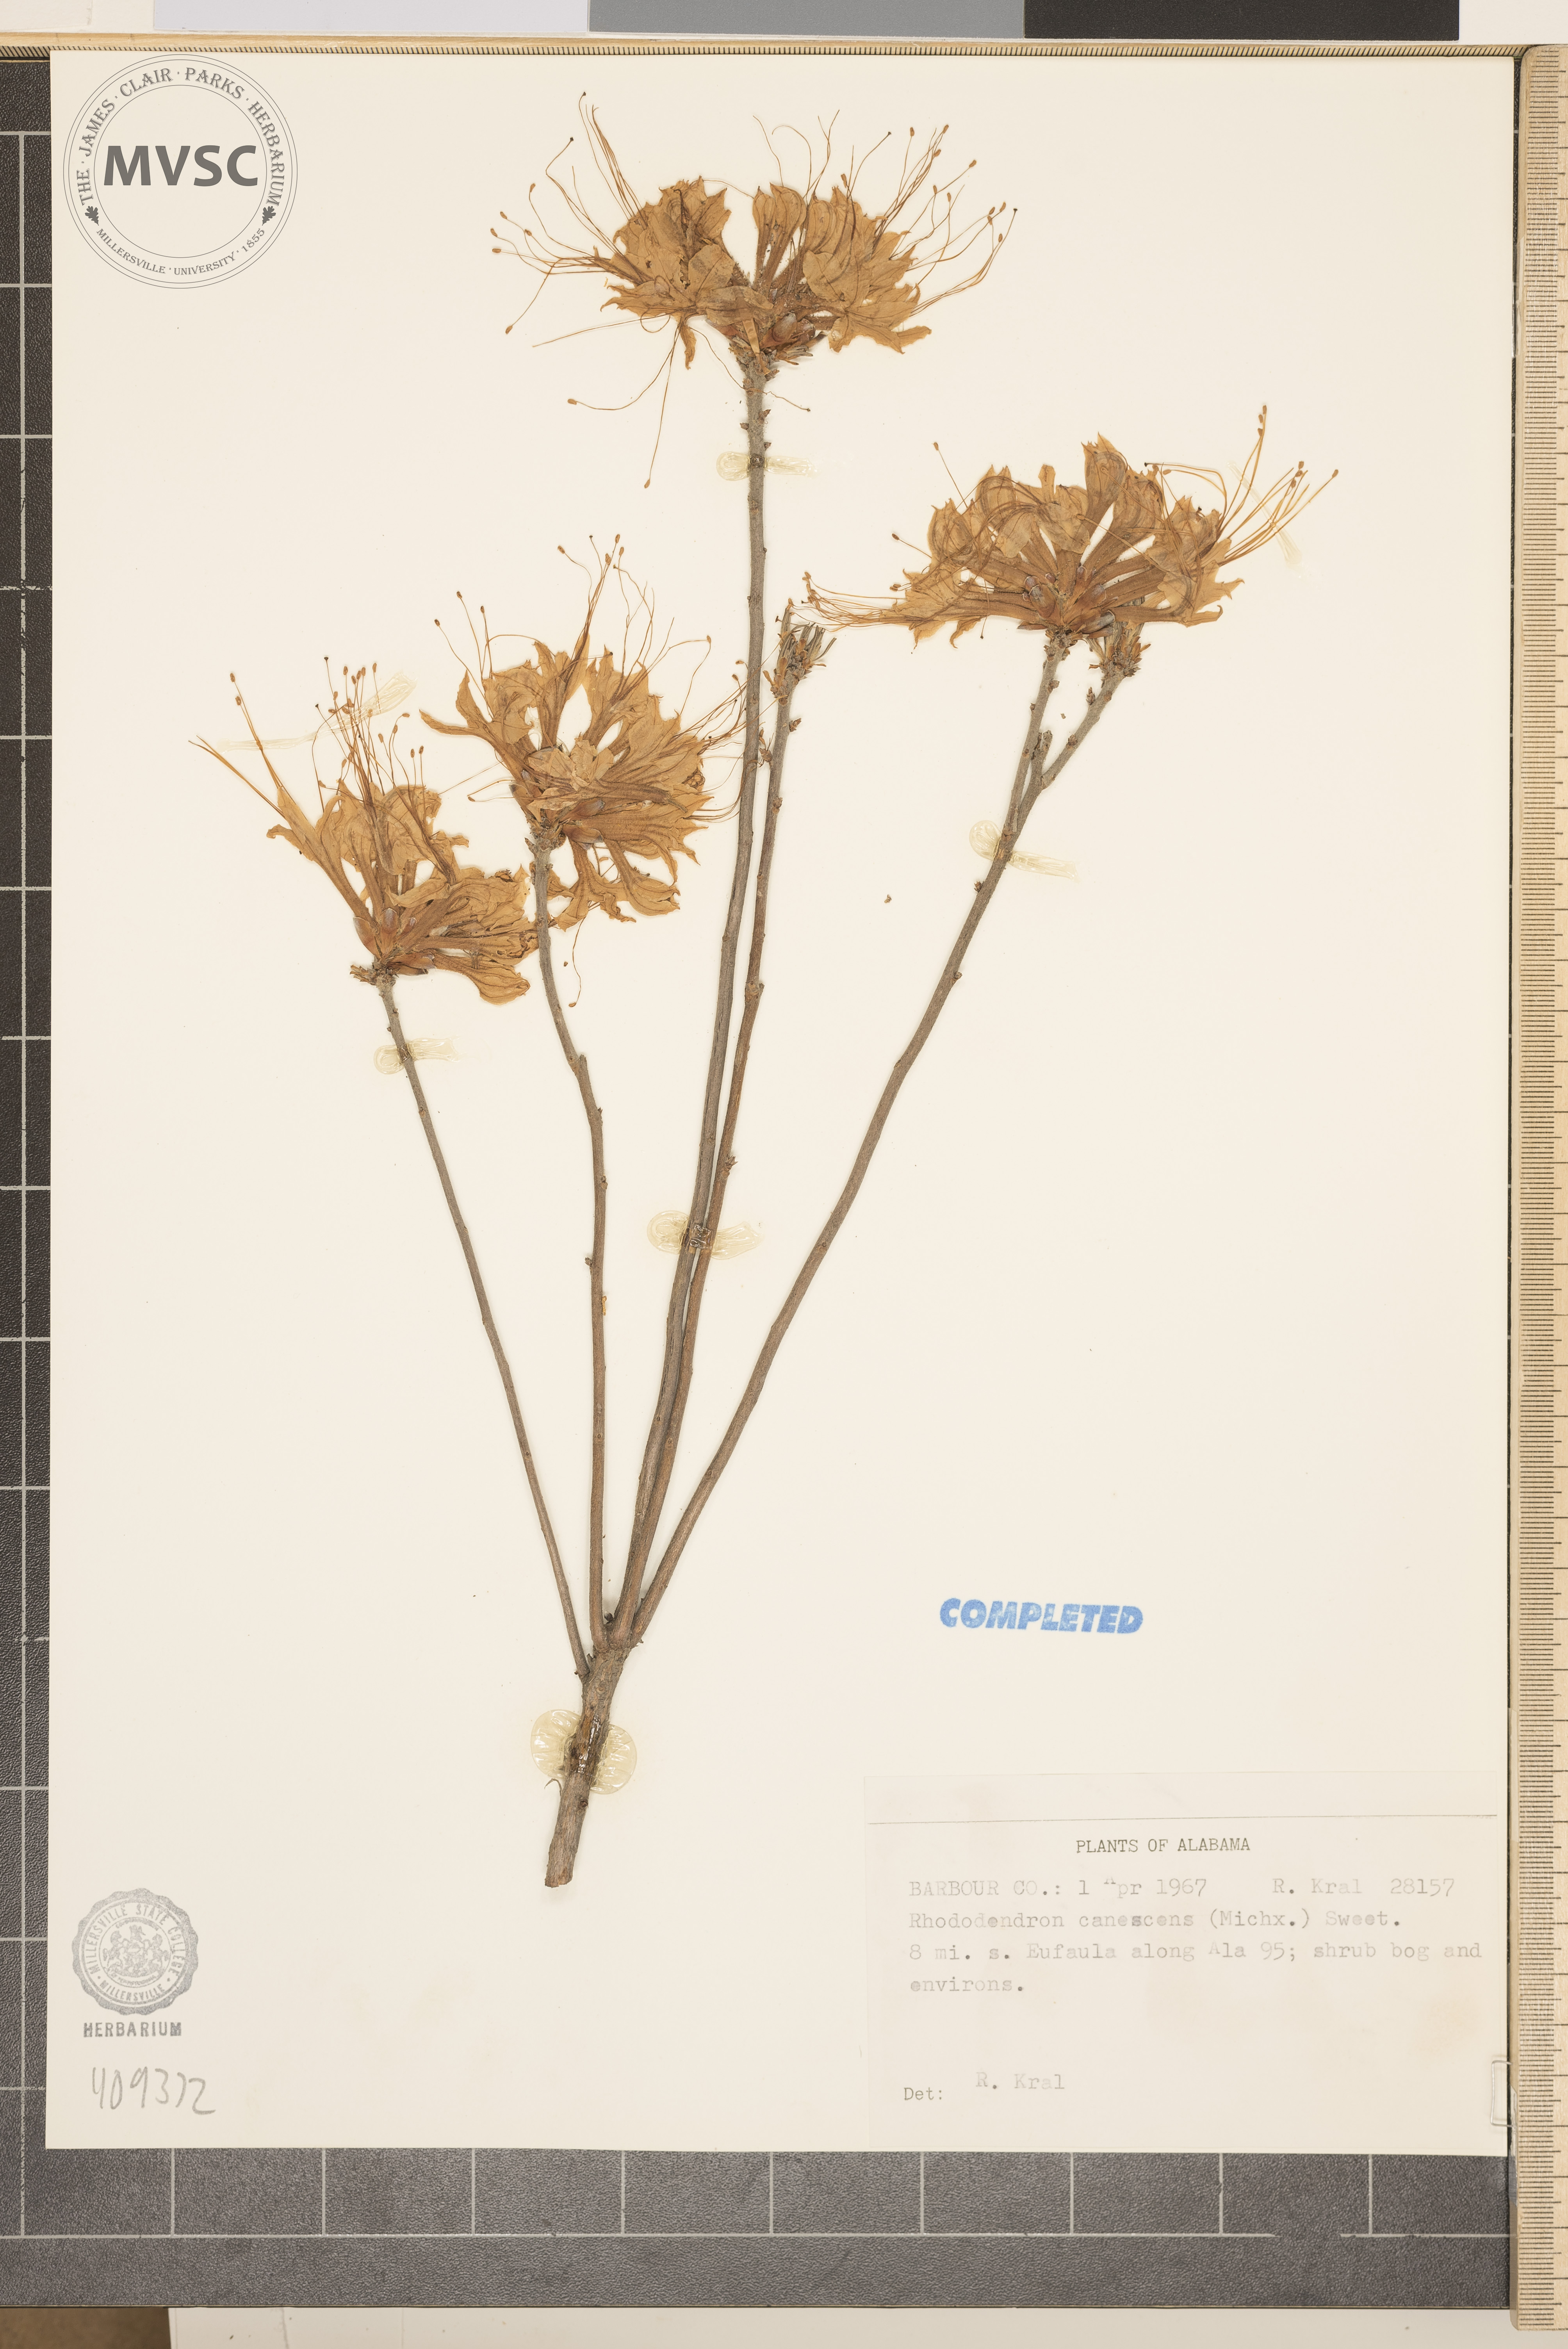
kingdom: Plantae
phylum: Tracheophyta
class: Magnoliopsida
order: Ericales
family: Ericaceae
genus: Rhododendron
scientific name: Rhododendron canescens
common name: Mountain azalea
